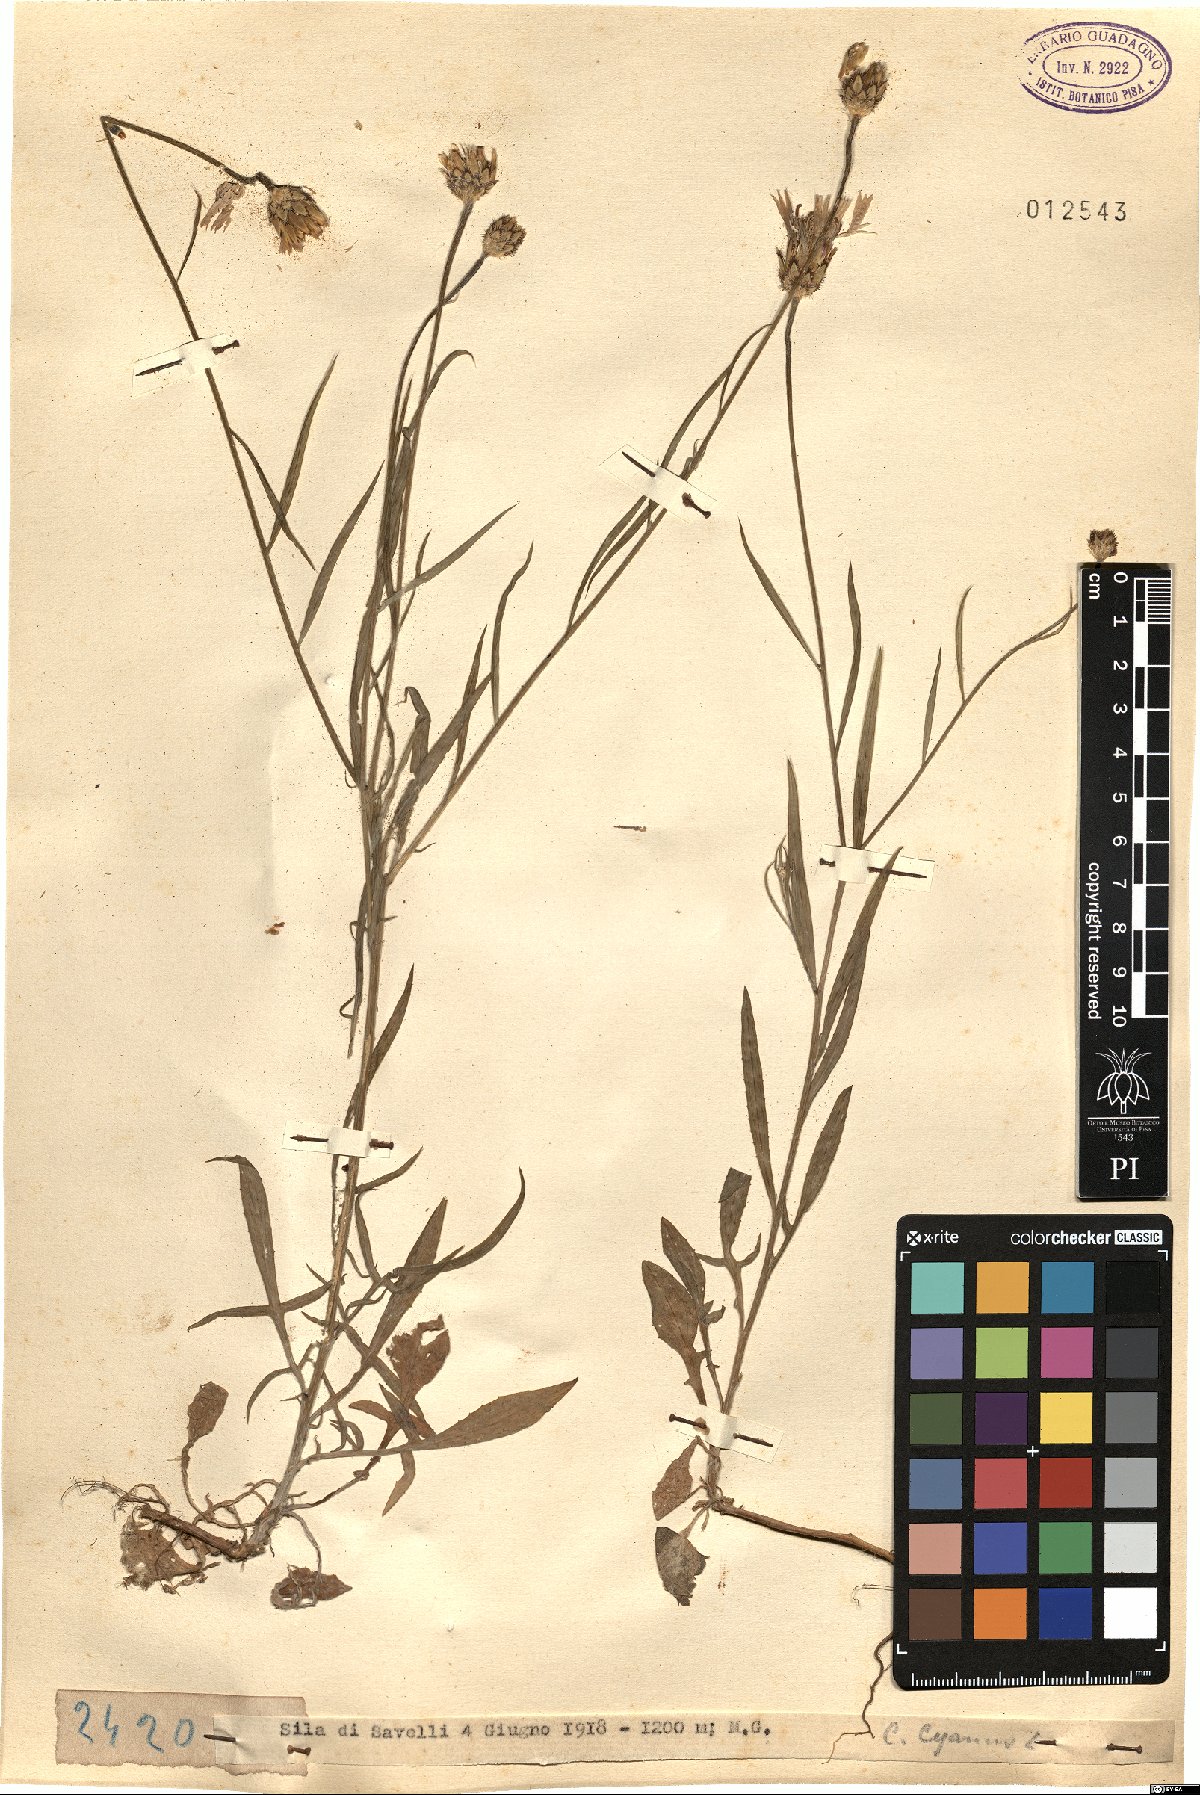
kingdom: Plantae
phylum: Tracheophyta
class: Magnoliopsida
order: Asterales
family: Asteraceae
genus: Centaurea
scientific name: Centaurea cyanus
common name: Cornflower
